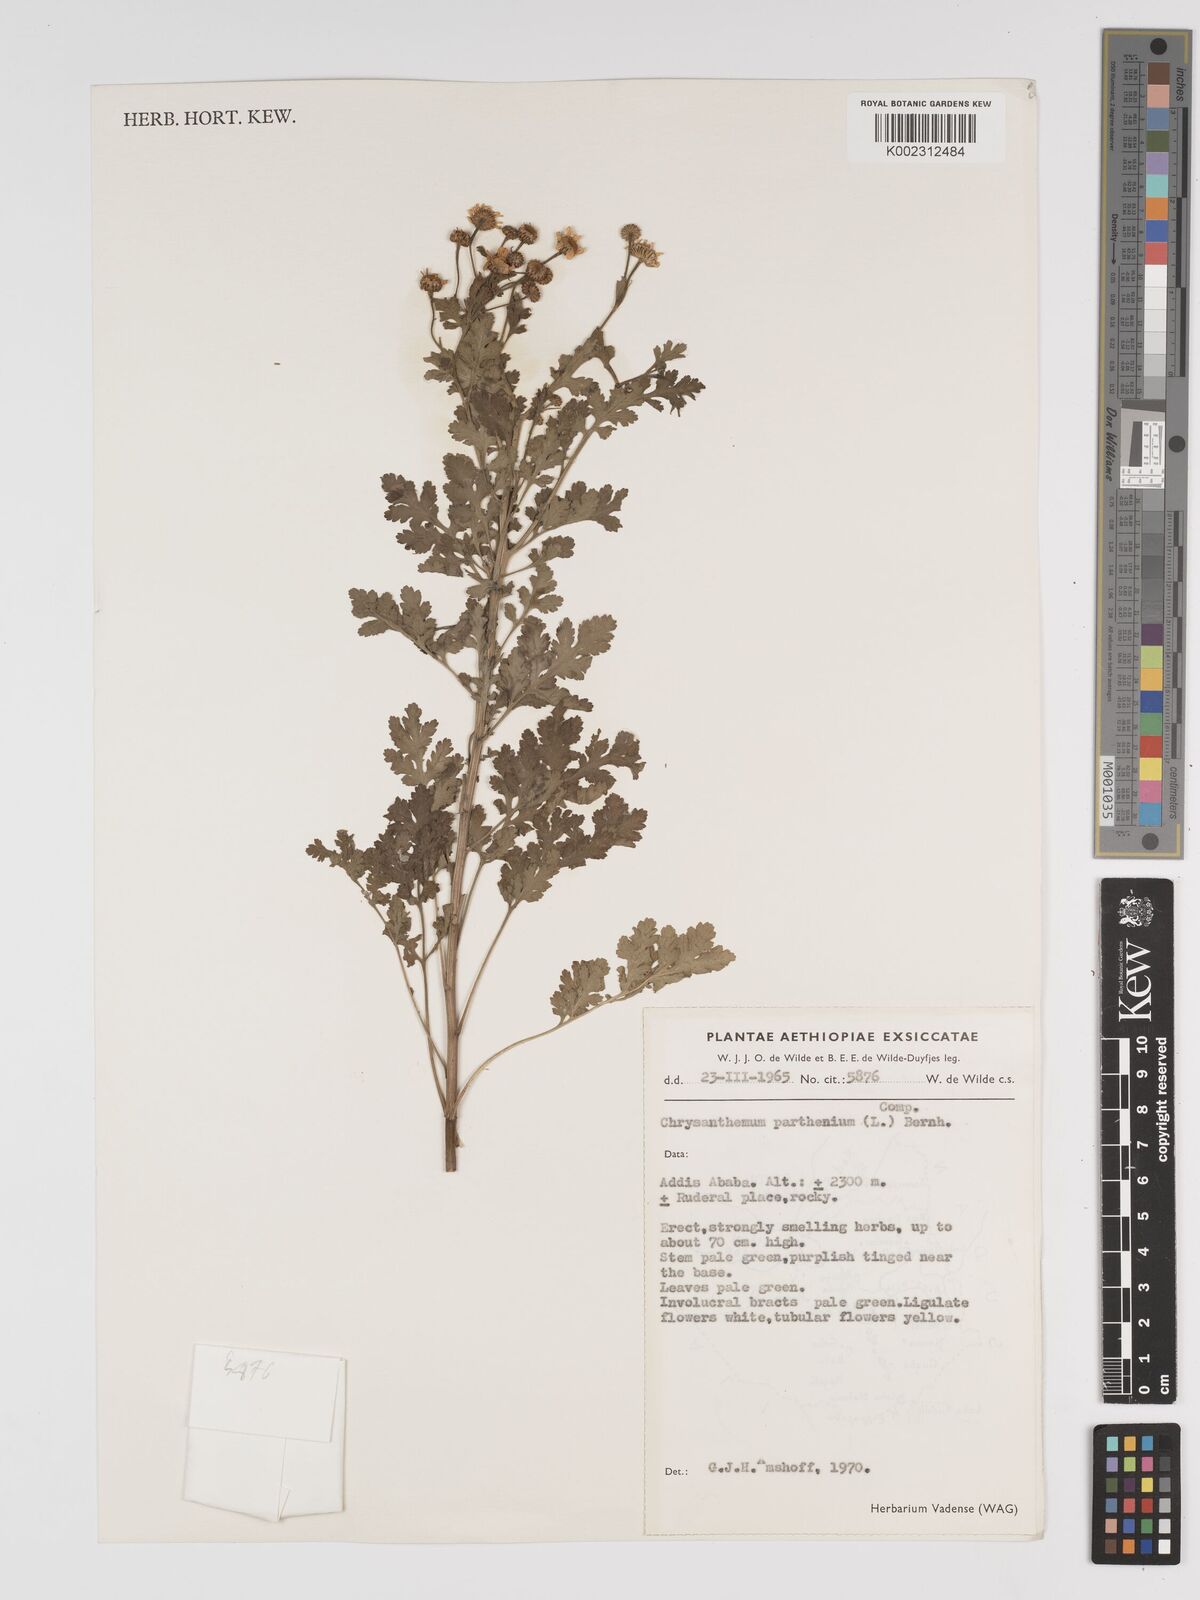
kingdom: Plantae
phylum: Tracheophyta
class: Magnoliopsida
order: Asterales
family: Asteraceae
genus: Tanacetum
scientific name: Tanacetum parthenium
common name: Feverfew
